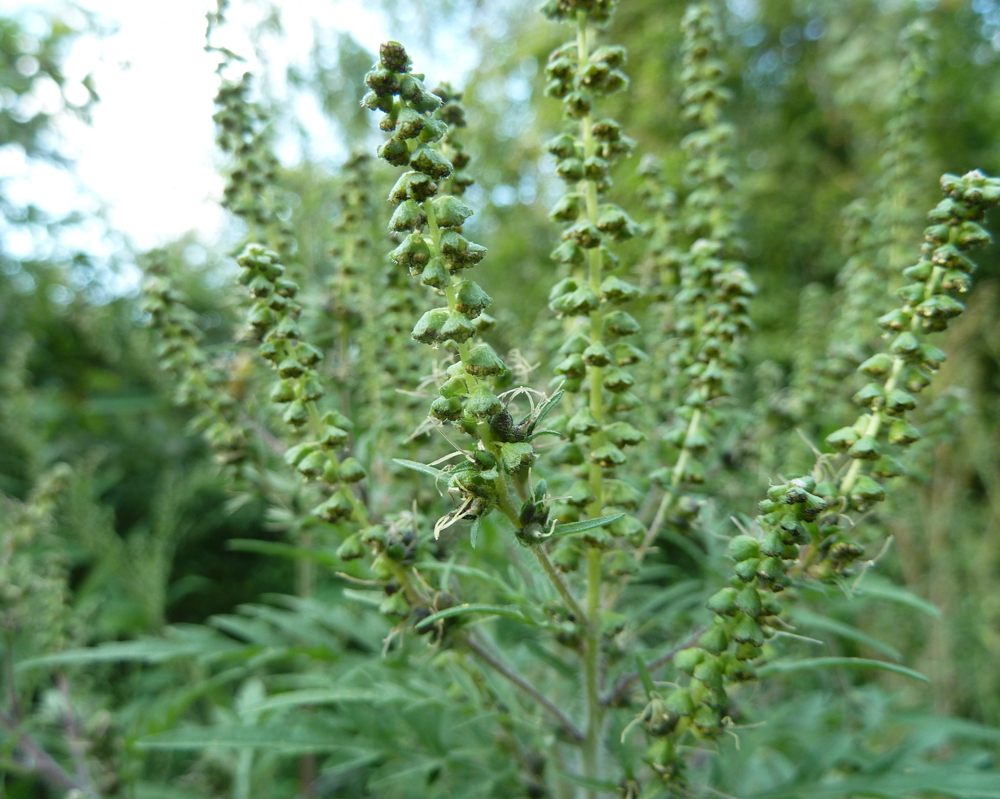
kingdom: Plantae
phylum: Tracheophyta
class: Magnoliopsida
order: Asterales
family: Asteraceae
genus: Ambrosia
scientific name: Ambrosia artemisiifolia
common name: Annual ragweed
